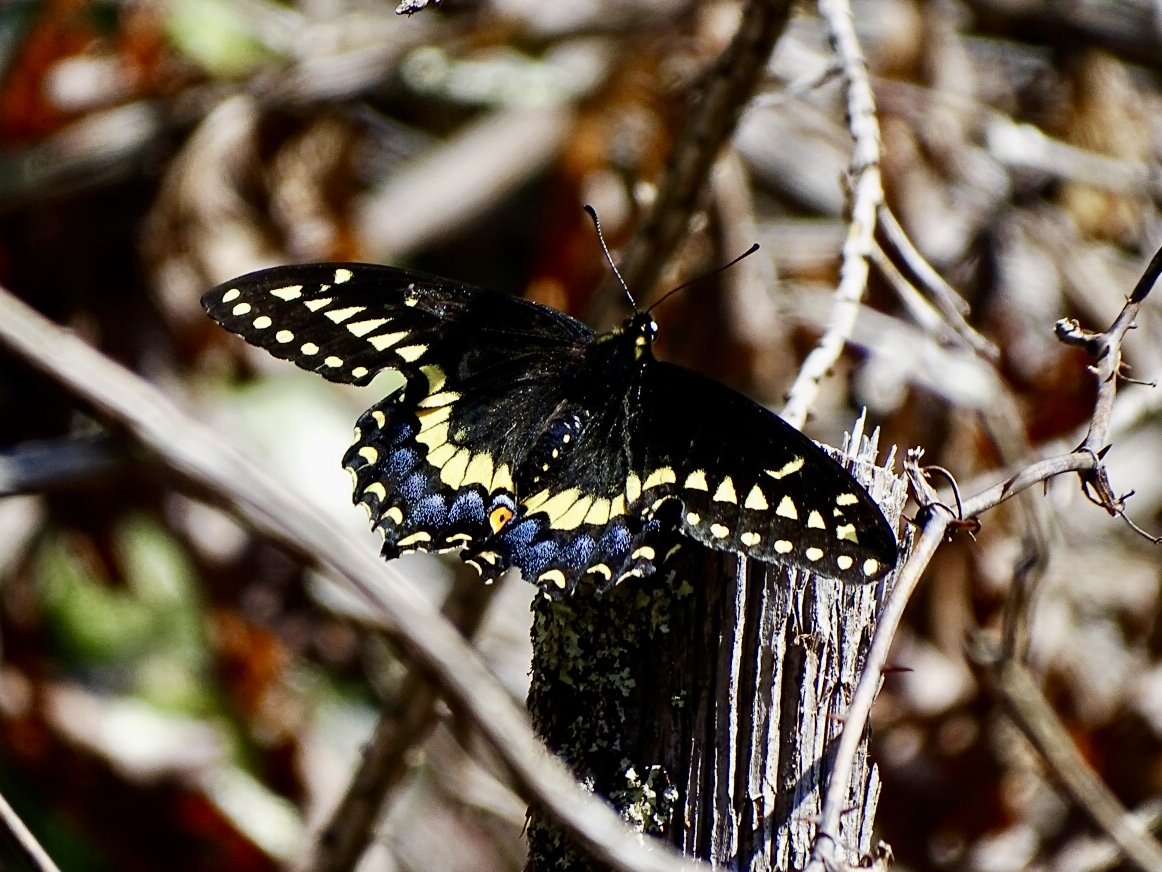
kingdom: Animalia
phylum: Arthropoda
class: Insecta
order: Lepidoptera
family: Papilionidae
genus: Papilio
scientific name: Papilio polyxenes
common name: Black Swallowtail
